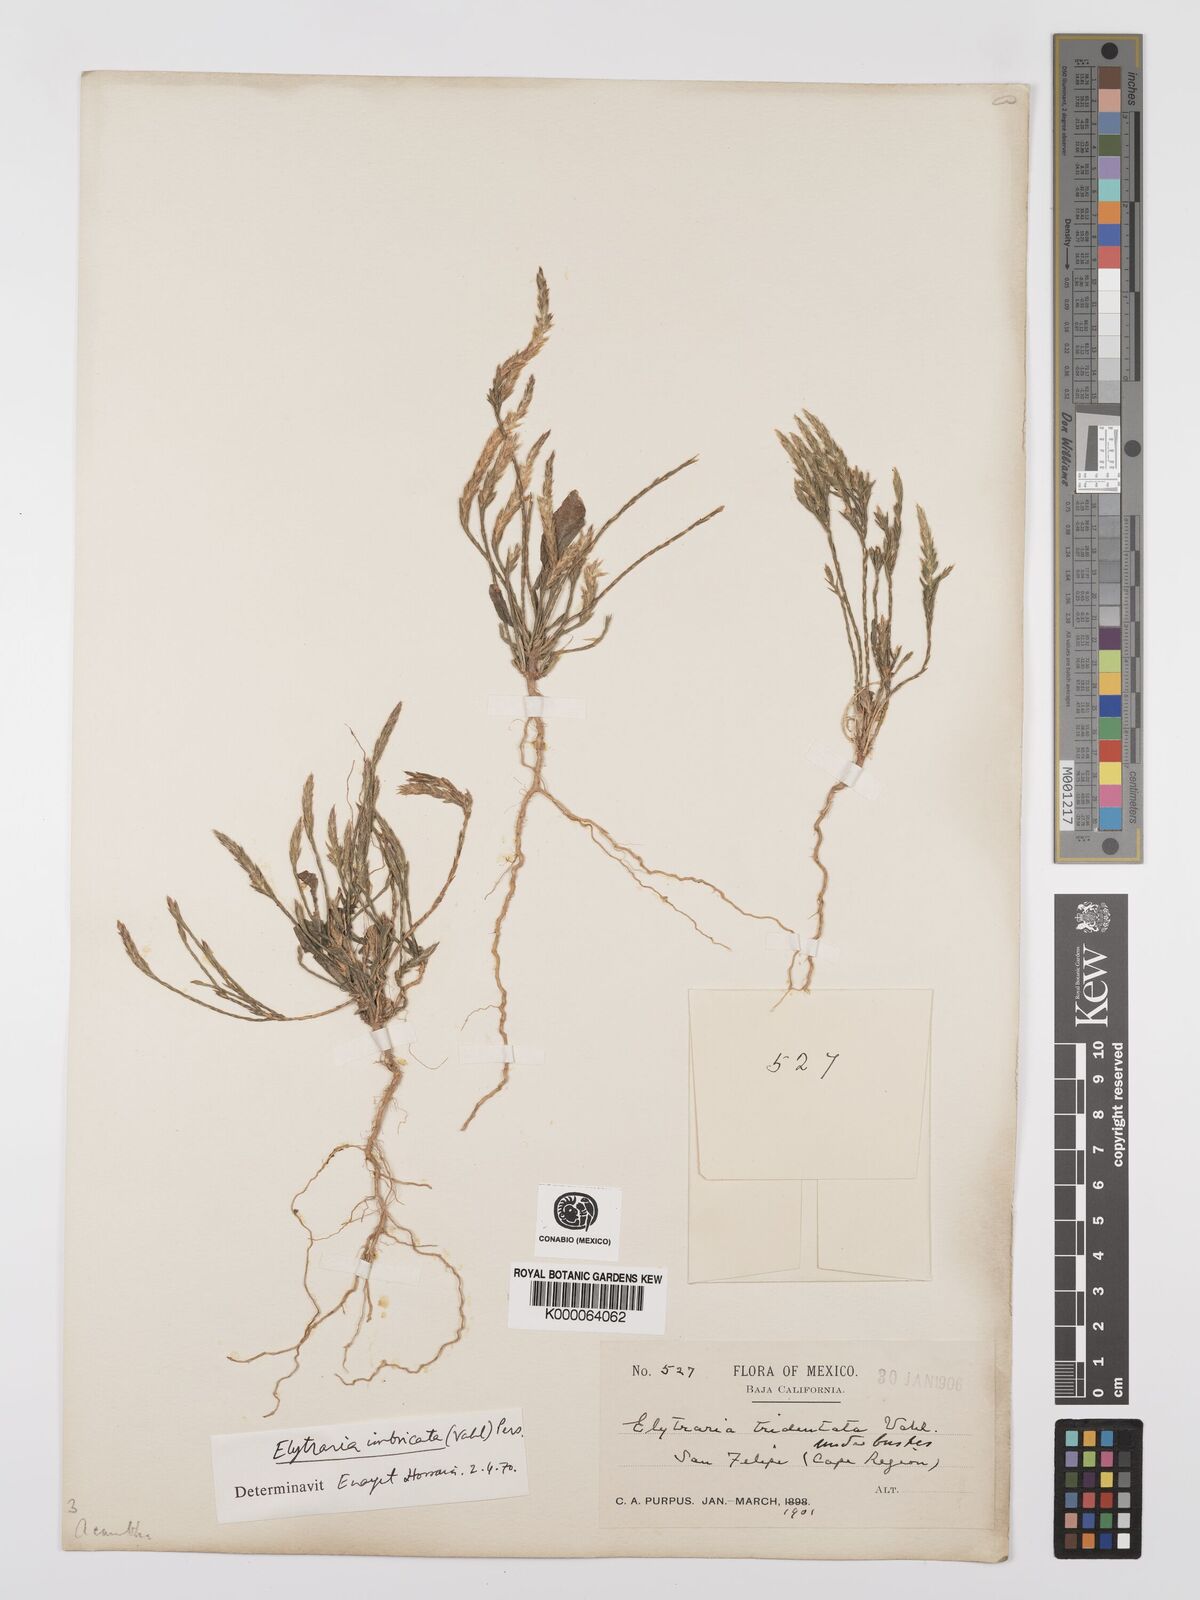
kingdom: Plantae
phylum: Tracheophyta
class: Magnoliopsida
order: Lamiales
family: Acanthaceae
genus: Elytraria
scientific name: Elytraria imbricata
